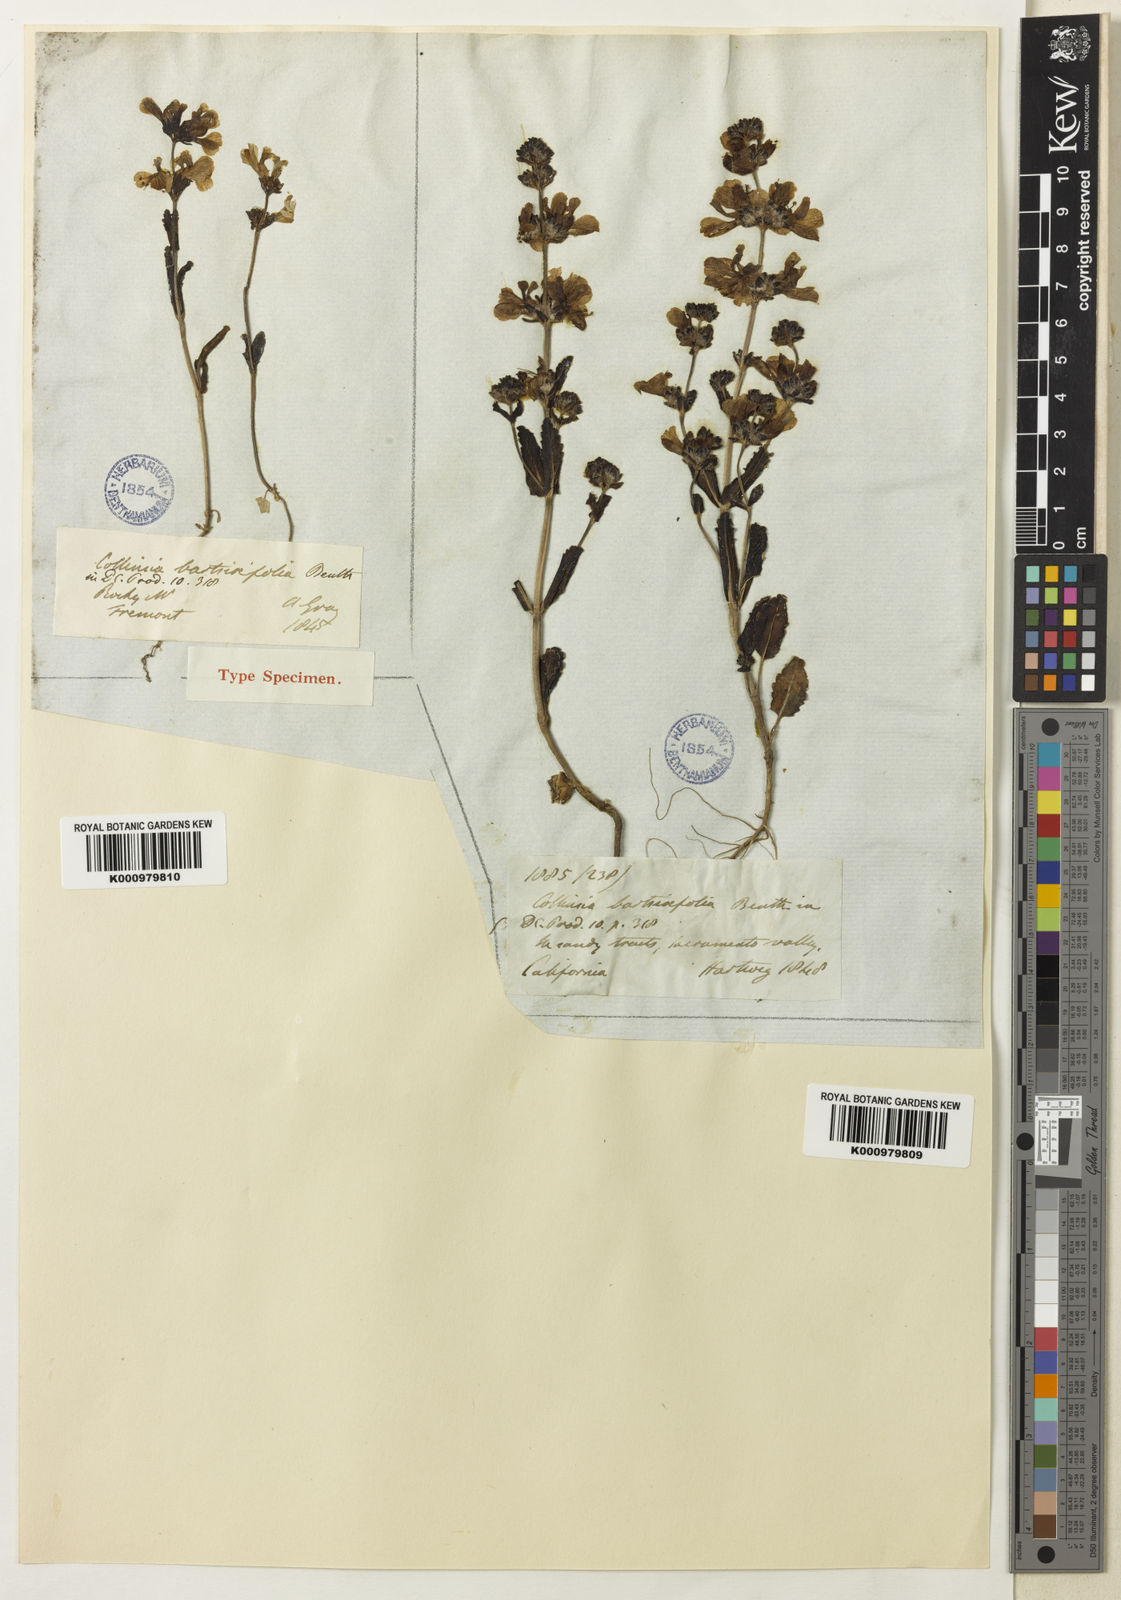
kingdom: Plantae
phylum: Tracheophyta
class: Magnoliopsida
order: Lamiales
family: Plantaginaceae
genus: Collinsia
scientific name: Collinsia bartsiifolia
